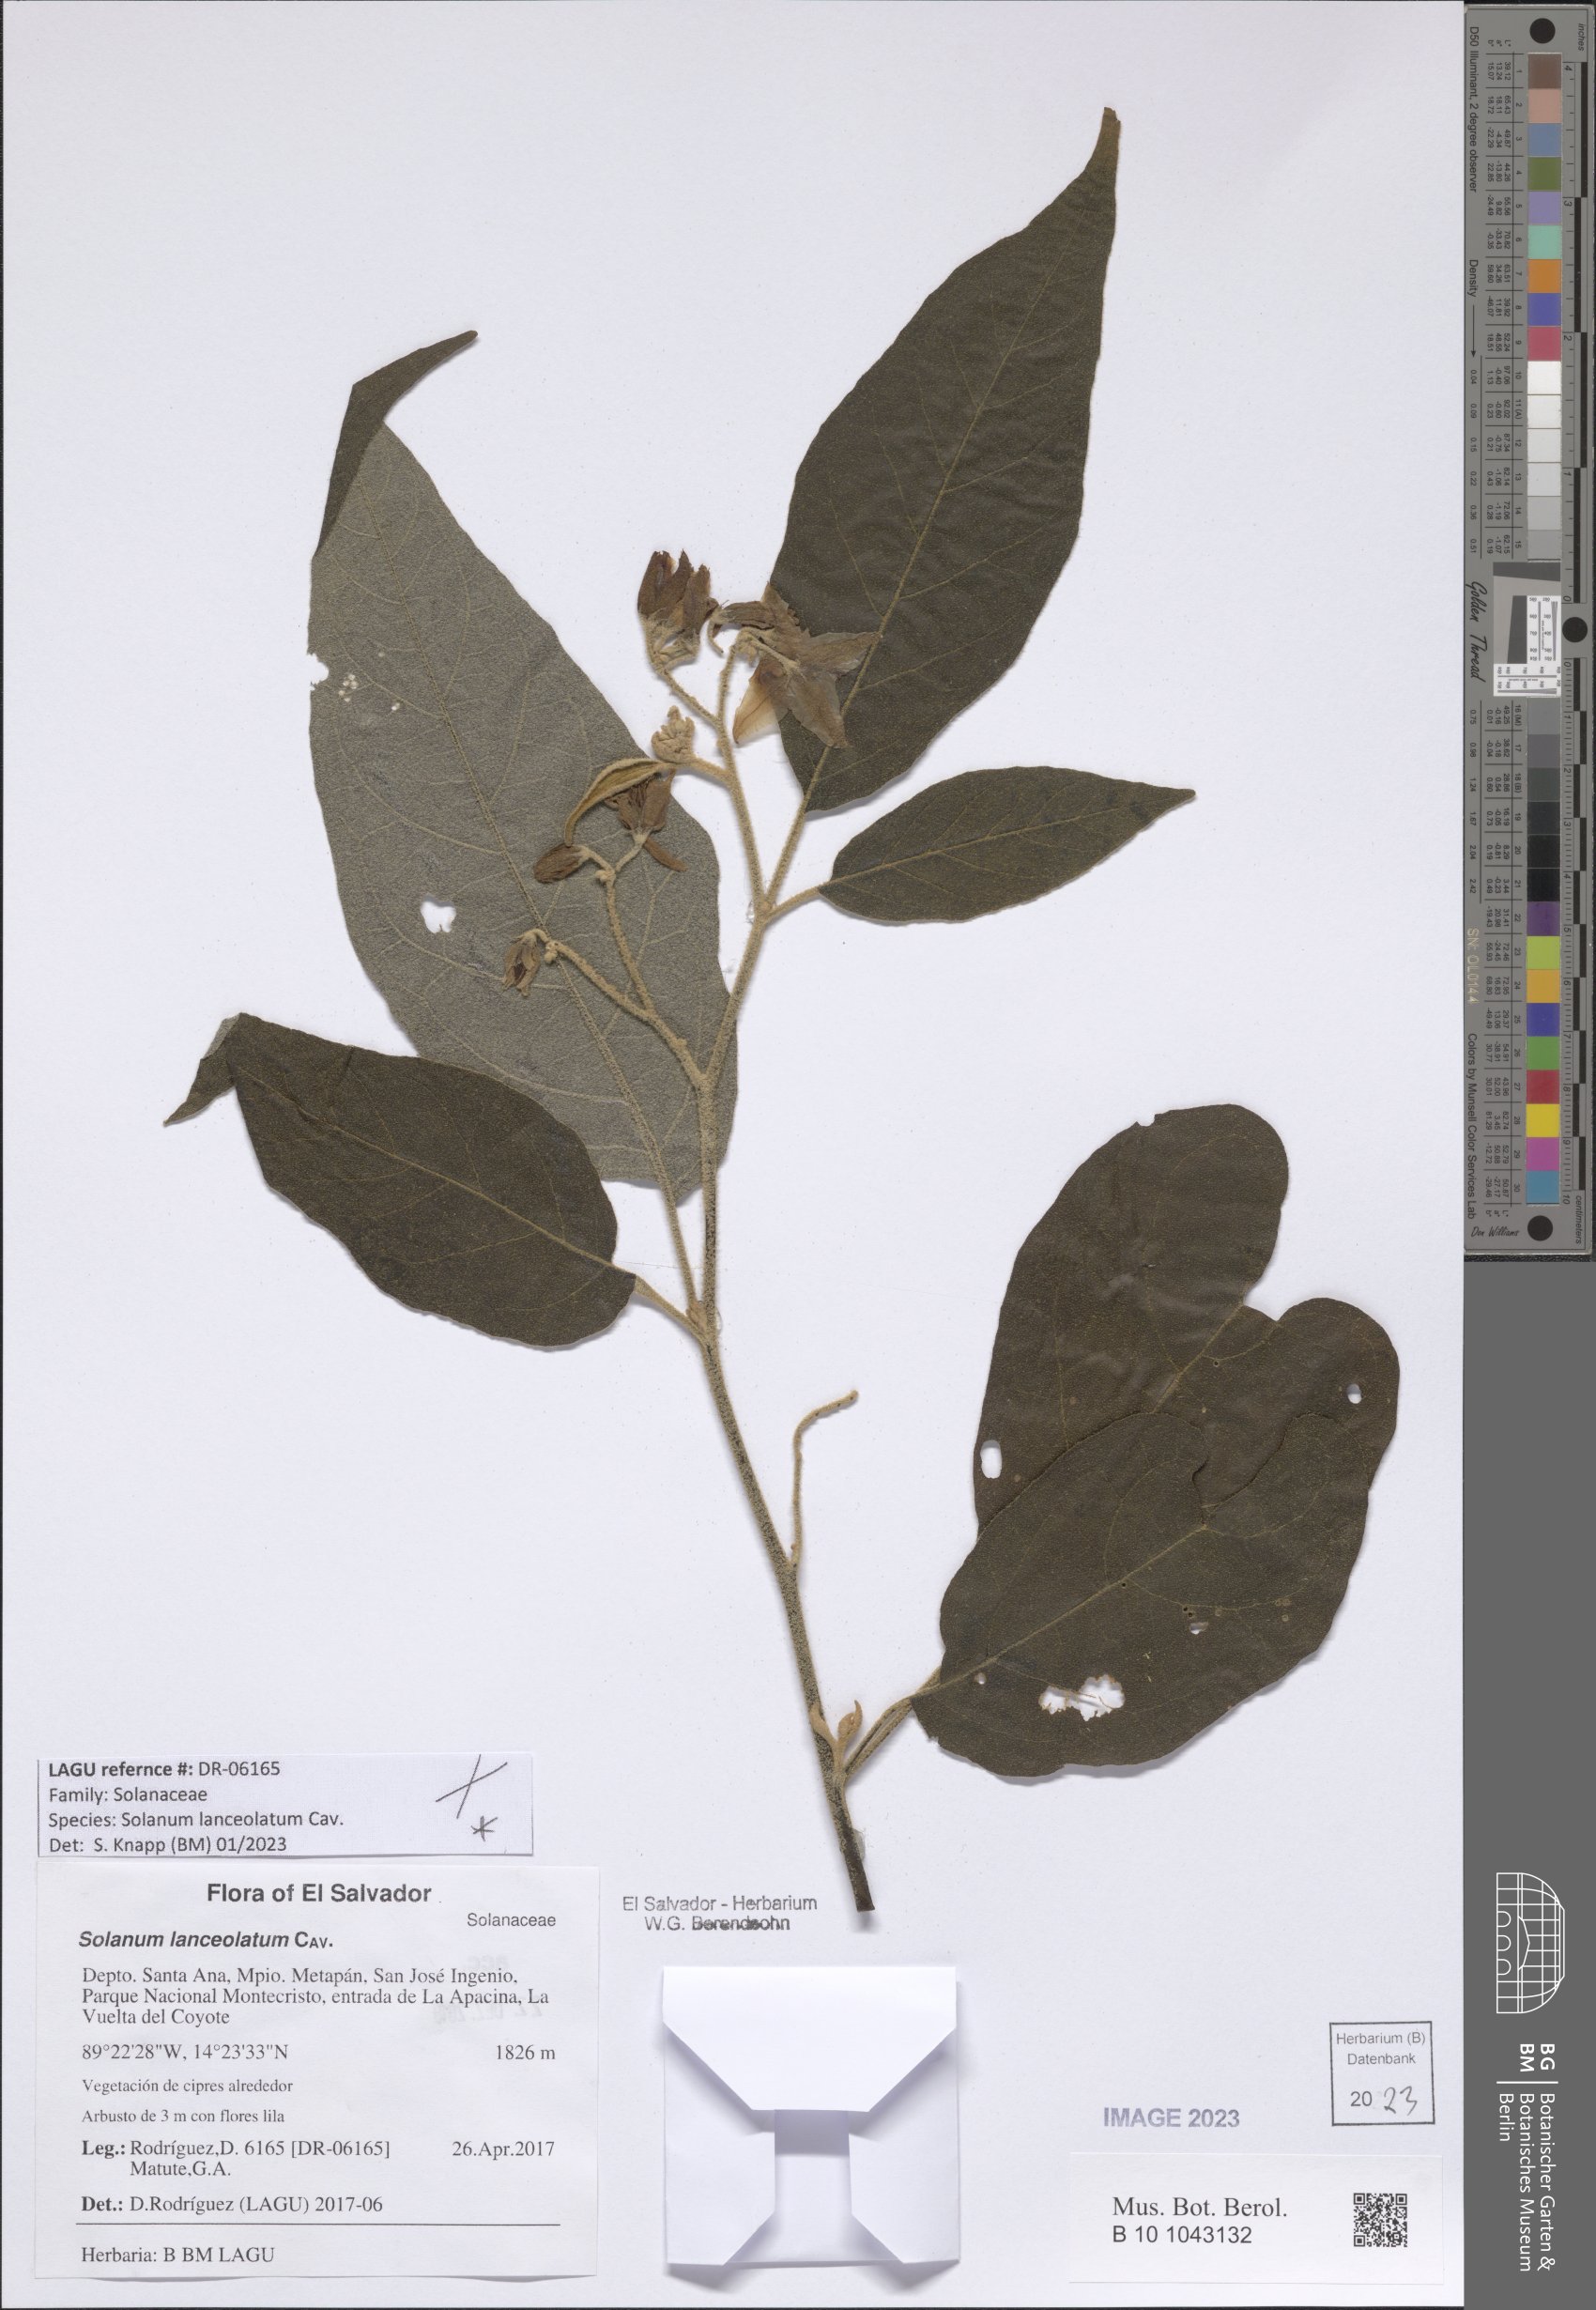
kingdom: Plantae
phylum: Tracheophyta
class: Magnoliopsida
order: Solanales
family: Solanaceae
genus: Solanum
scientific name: Solanum lanceolatum
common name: Orangeberry nightshade
